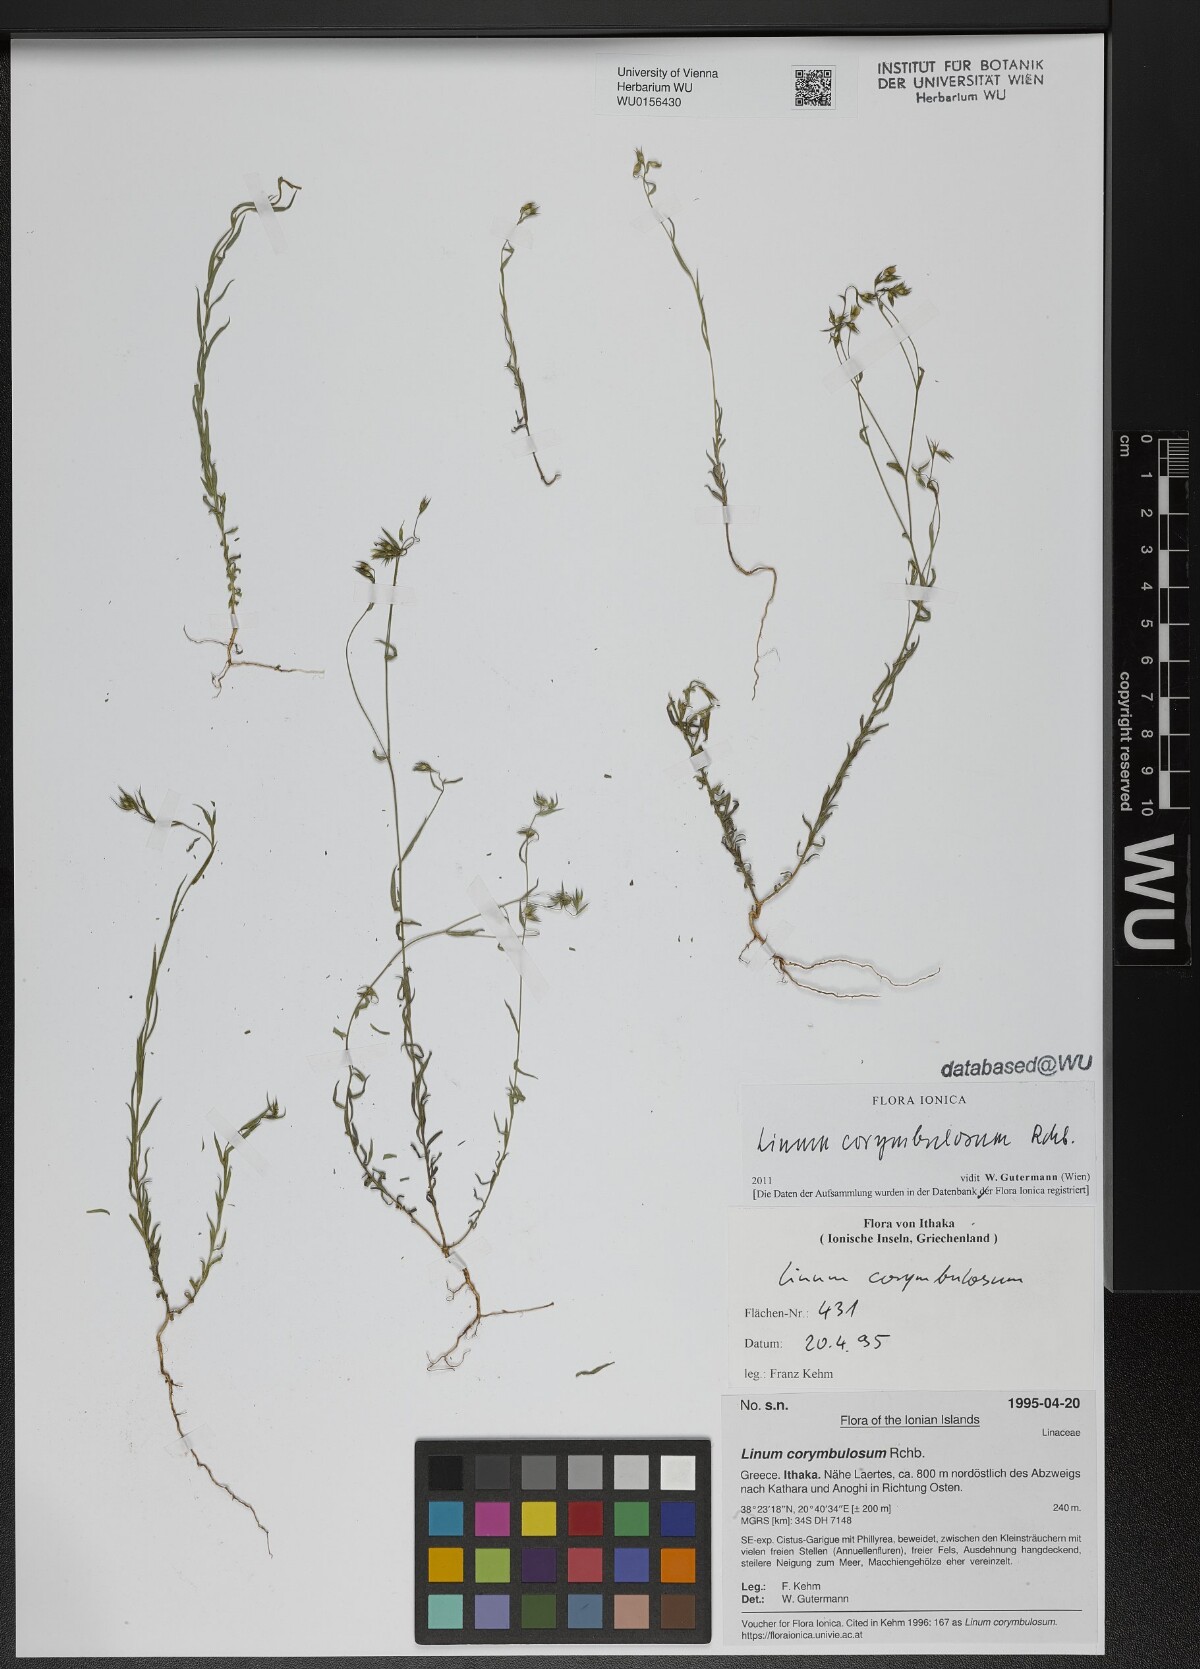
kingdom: Plantae
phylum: Tracheophyta
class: Magnoliopsida
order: Malpighiales
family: Linaceae
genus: Linum
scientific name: Linum corymbulosum
